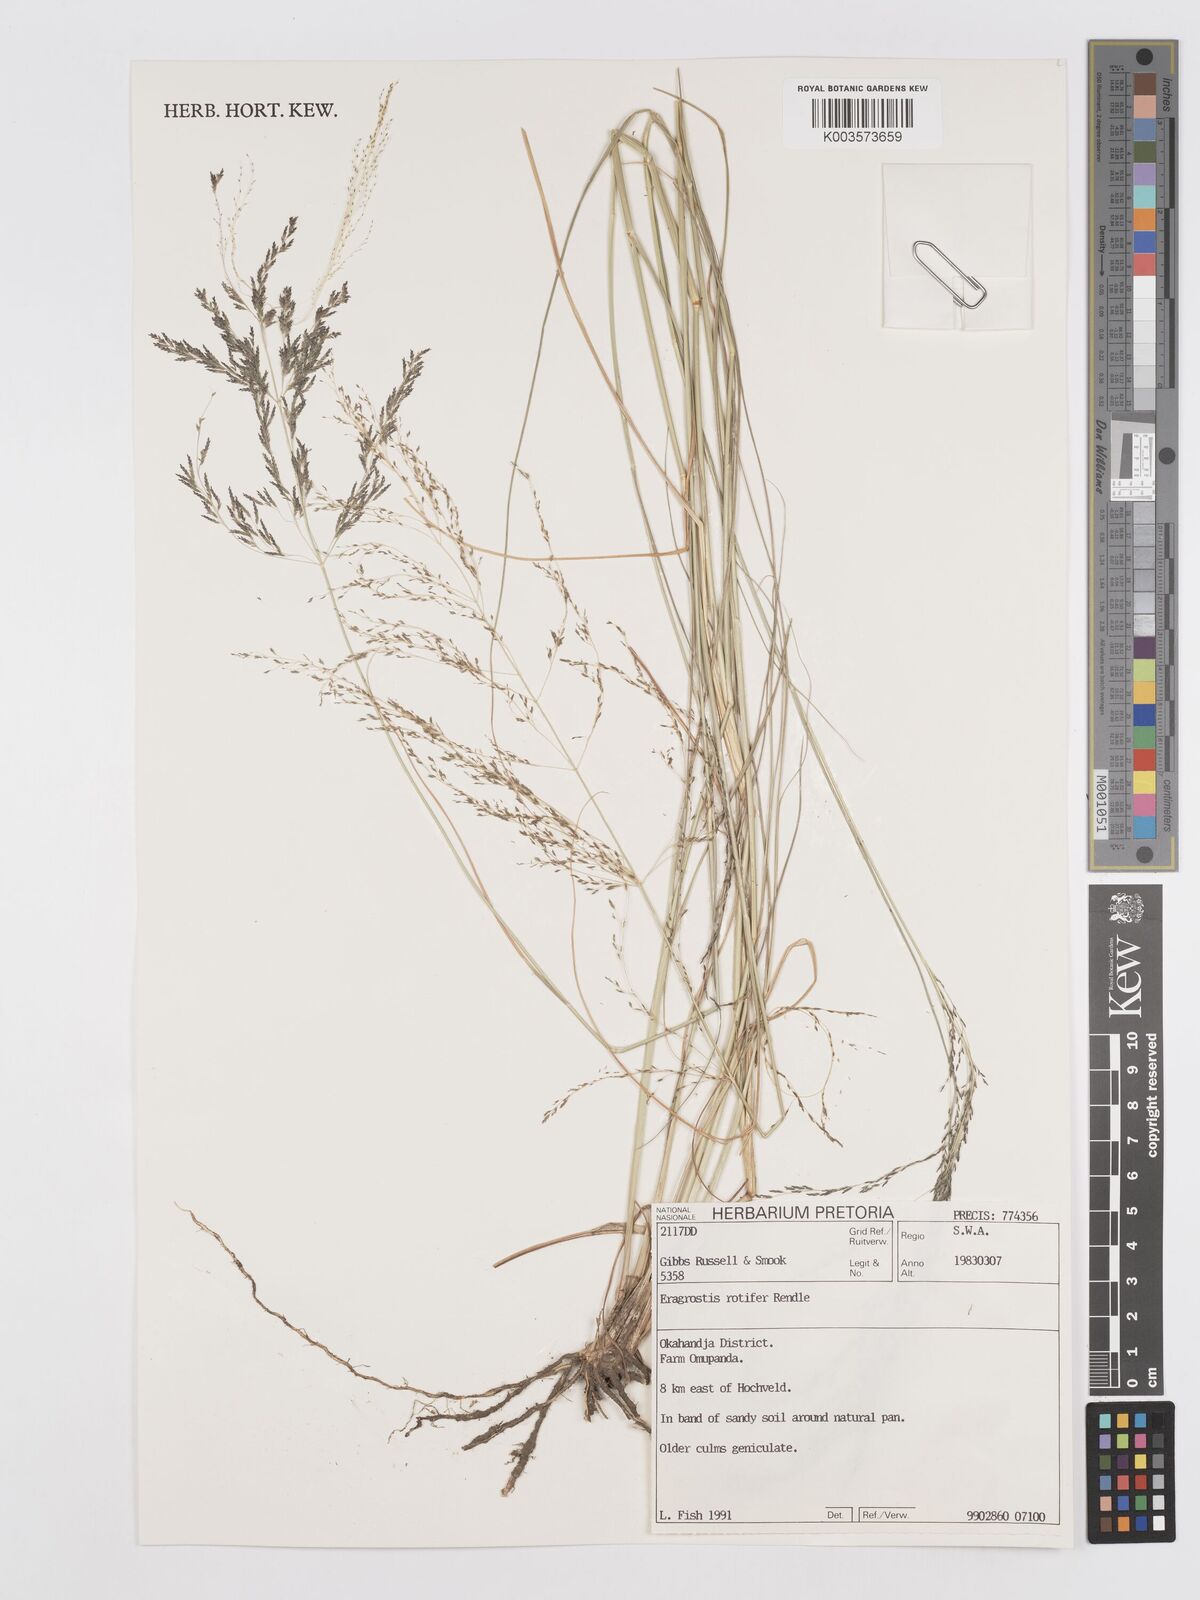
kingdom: Plantae
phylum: Tracheophyta
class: Liliopsida
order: Poales
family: Poaceae
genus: Eragrostis
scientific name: Eragrostis rotifer
